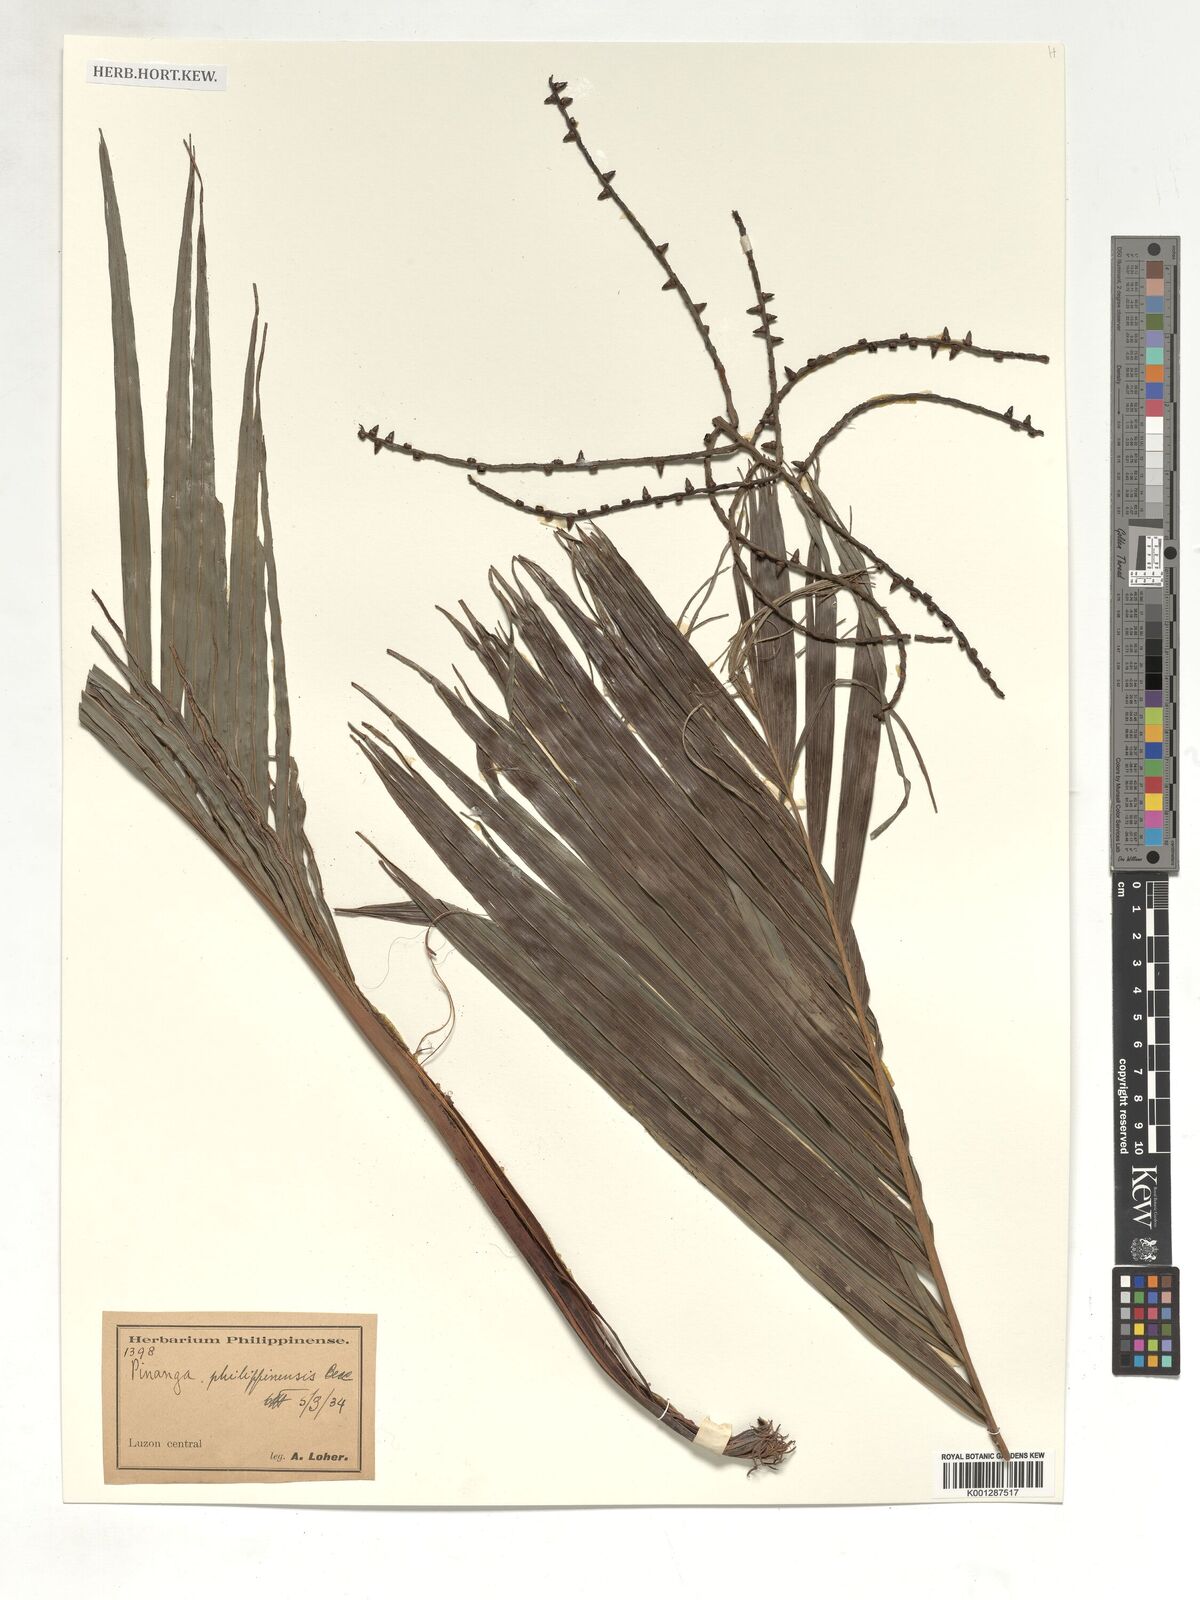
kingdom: Plantae
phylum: Tracheophyta
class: Liliopsida
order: Arecales
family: Arecaceae
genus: Pinanga
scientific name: Pinanga philippinensis
